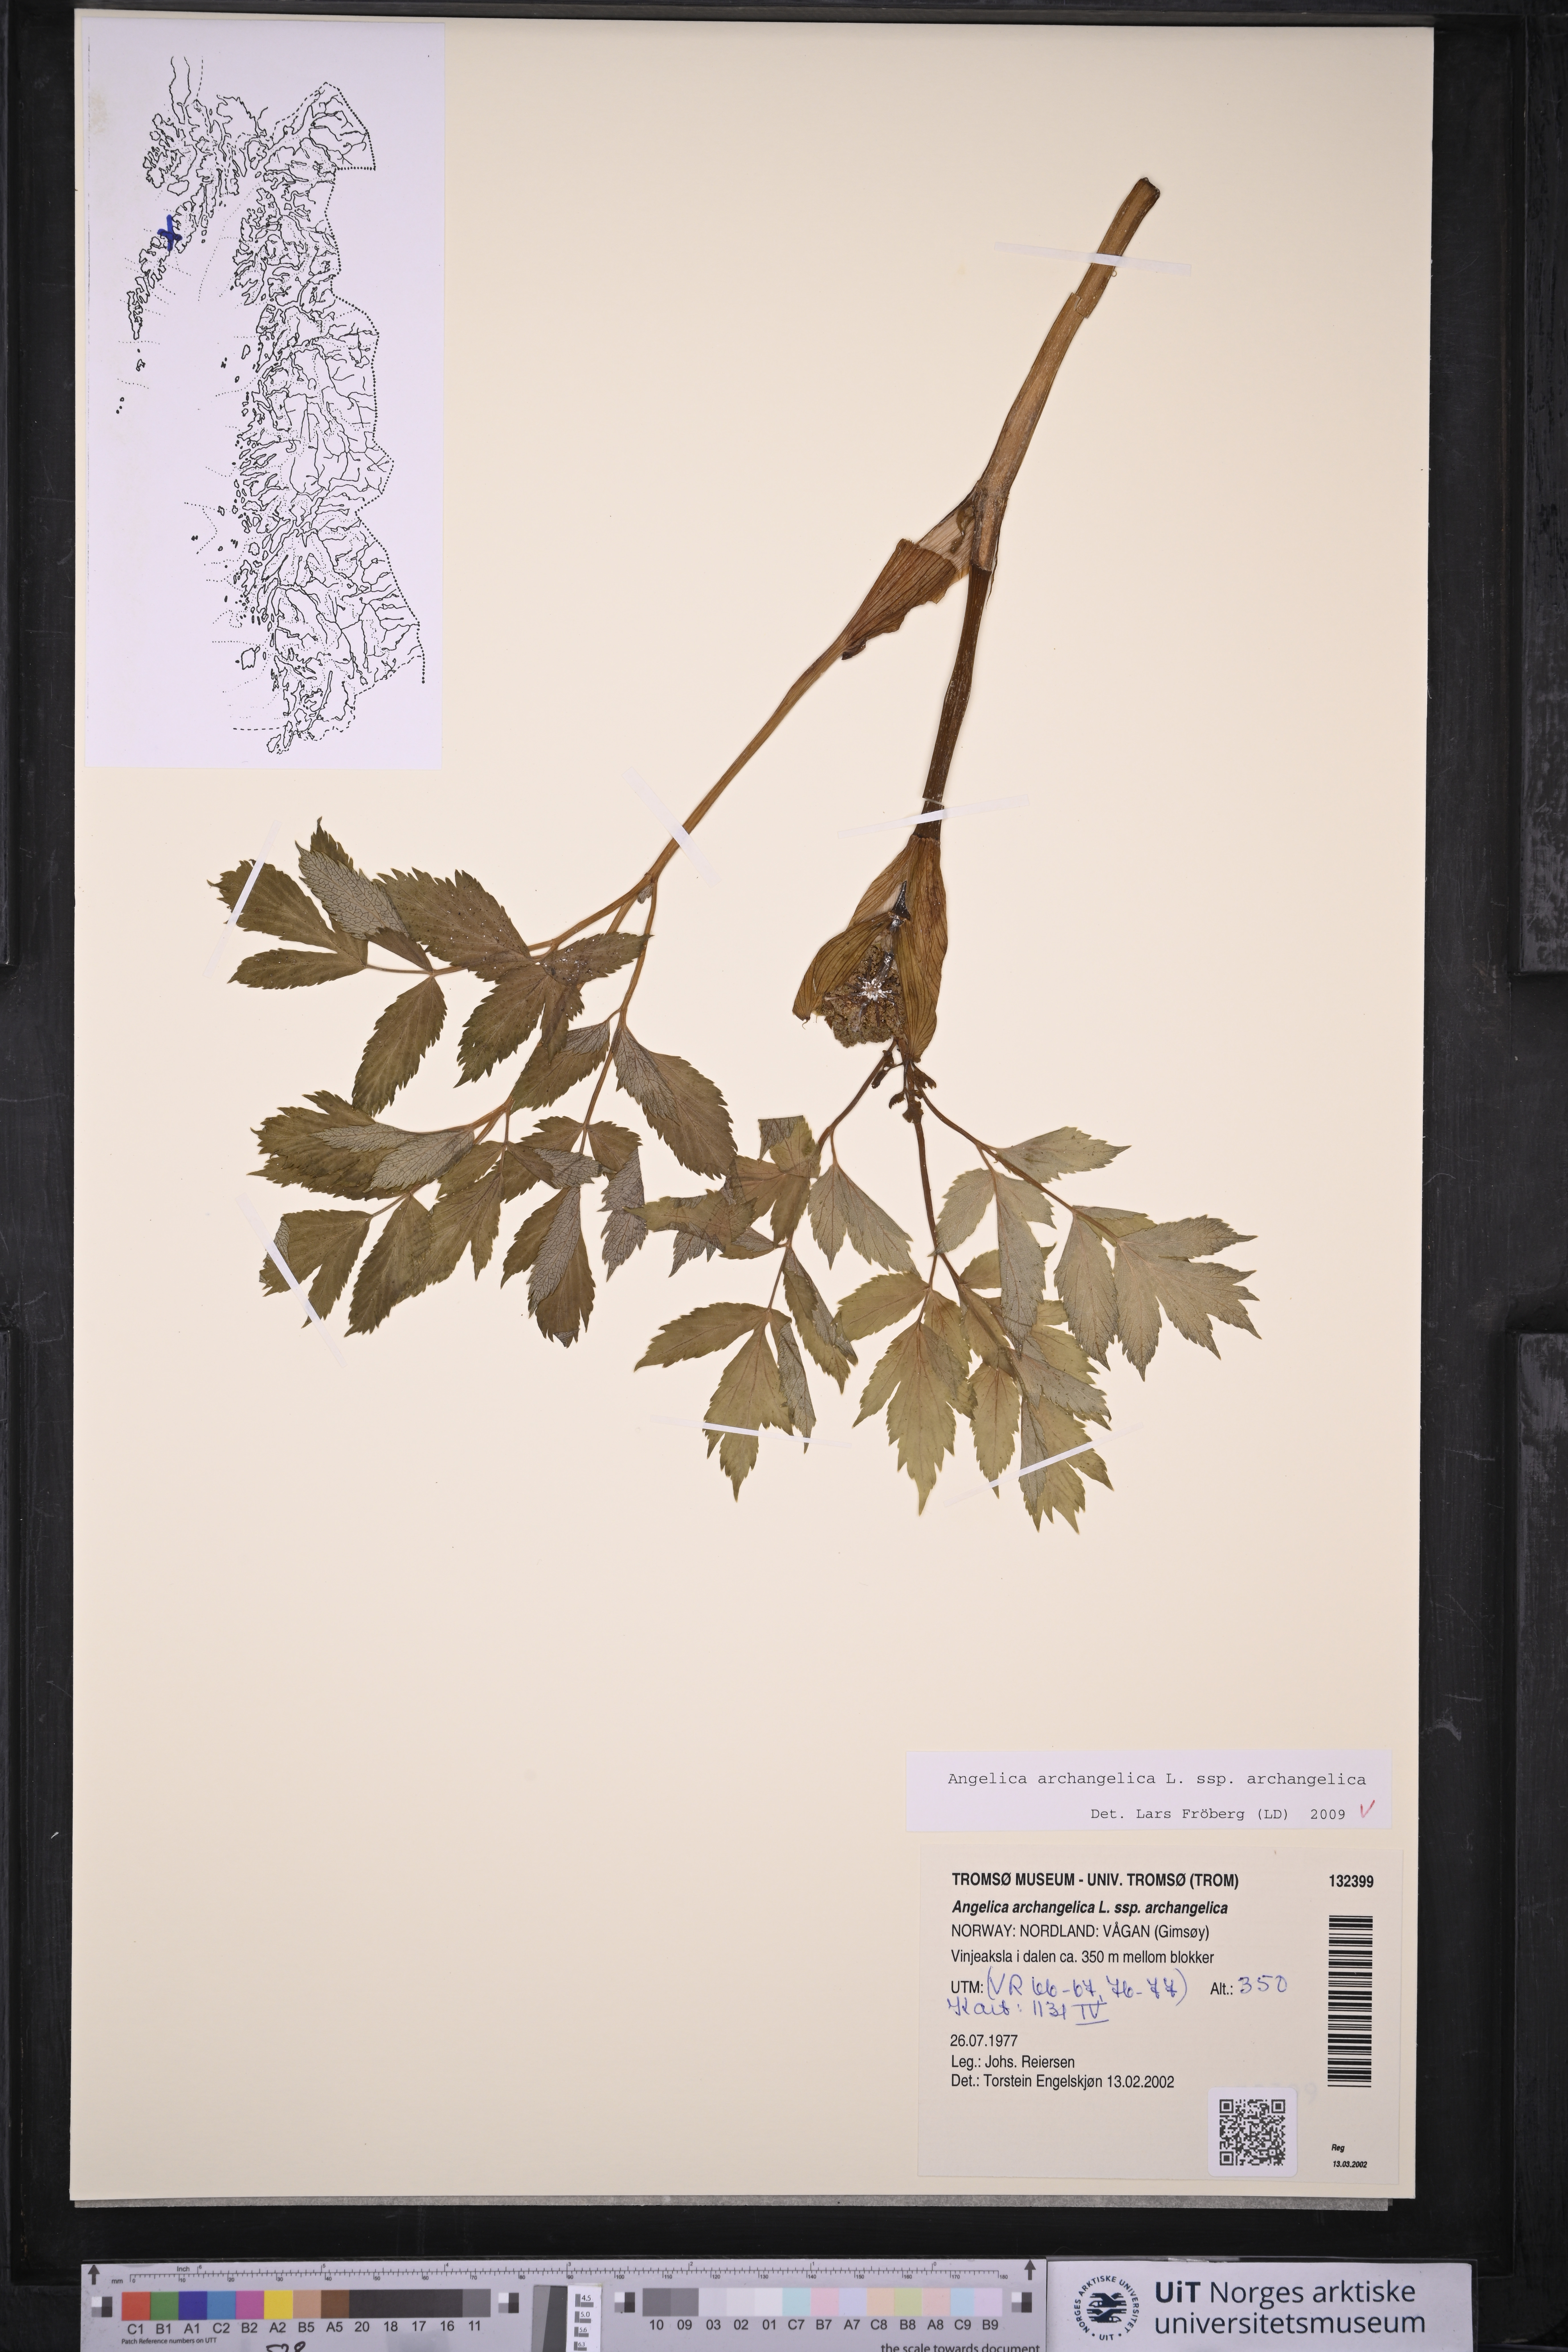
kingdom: Plantae
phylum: Tracheophyta
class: Magnoliopsida
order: Apiales
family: Apiaceae
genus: Angelica
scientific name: Angelica archangelica
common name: Garden angelica
